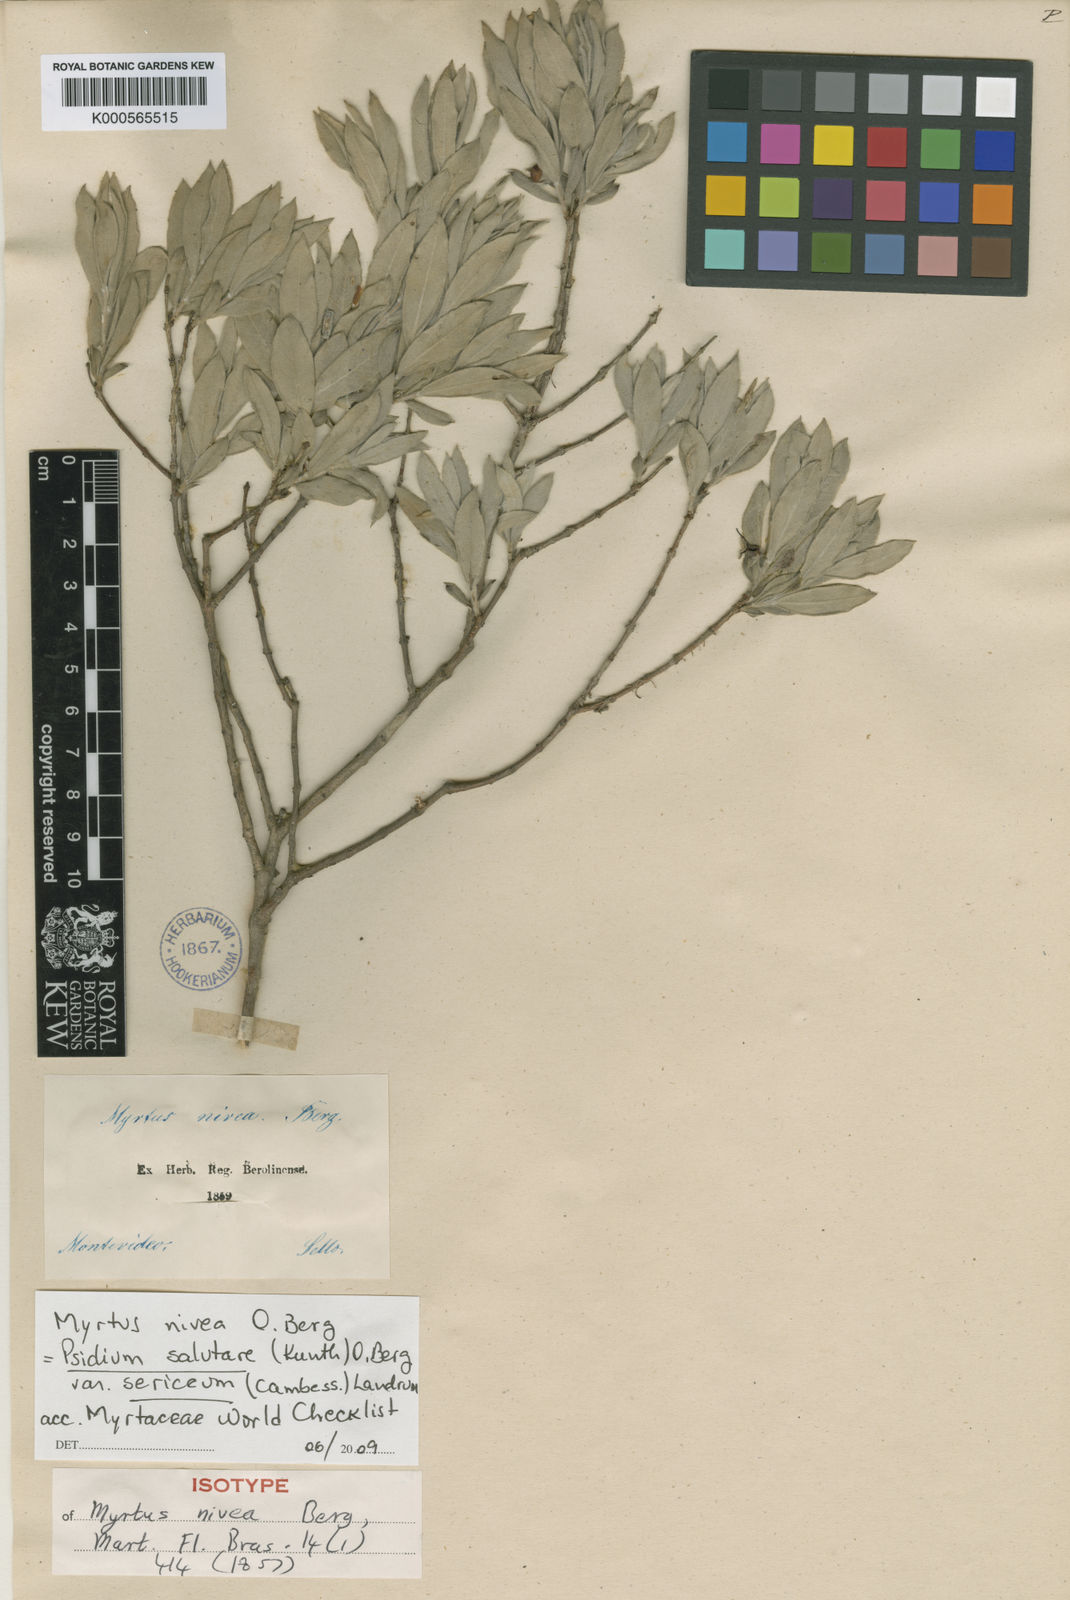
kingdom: Plantae
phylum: Tracheophyta
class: Magnoliopsida
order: Myrtales
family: Myrtaceae
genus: Psidium
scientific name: Psidium salutare
